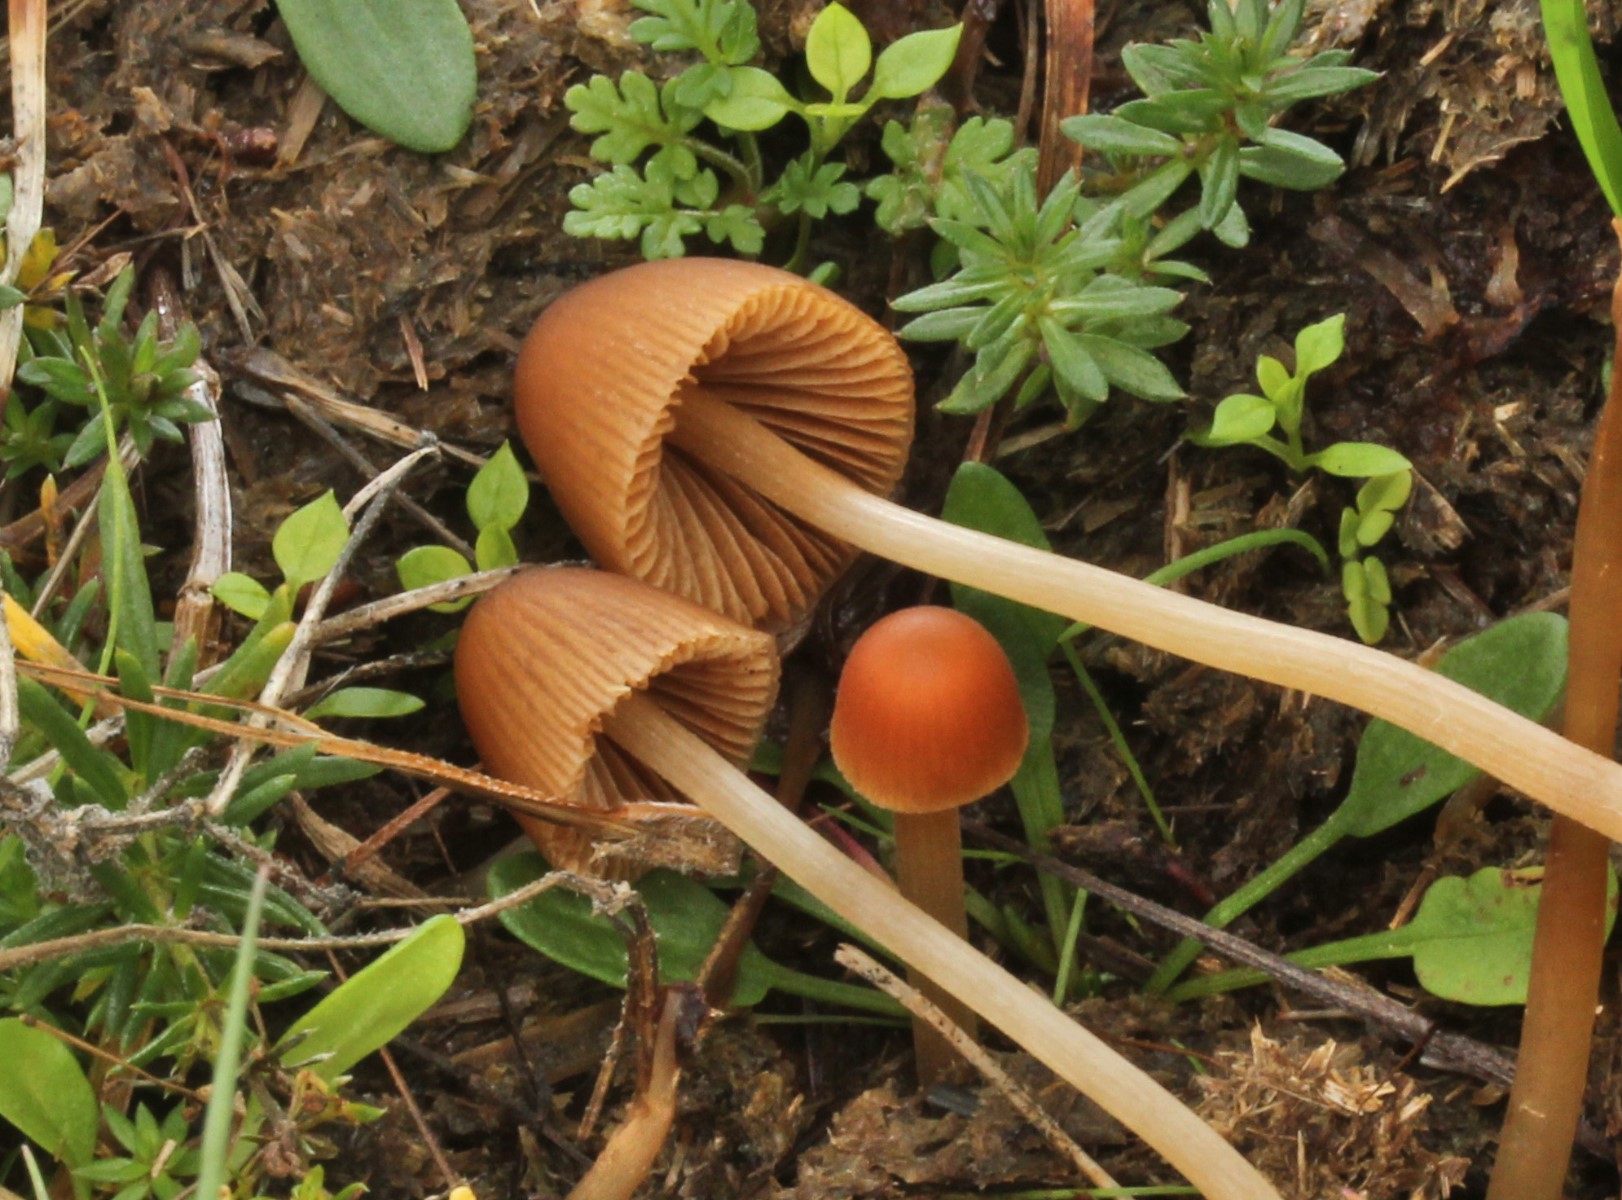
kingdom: Fungi
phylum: Basidiomycota
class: Agaricomycetes
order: Agaricales
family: Bolbitiaceae
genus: Conocybe
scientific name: Conocybe
